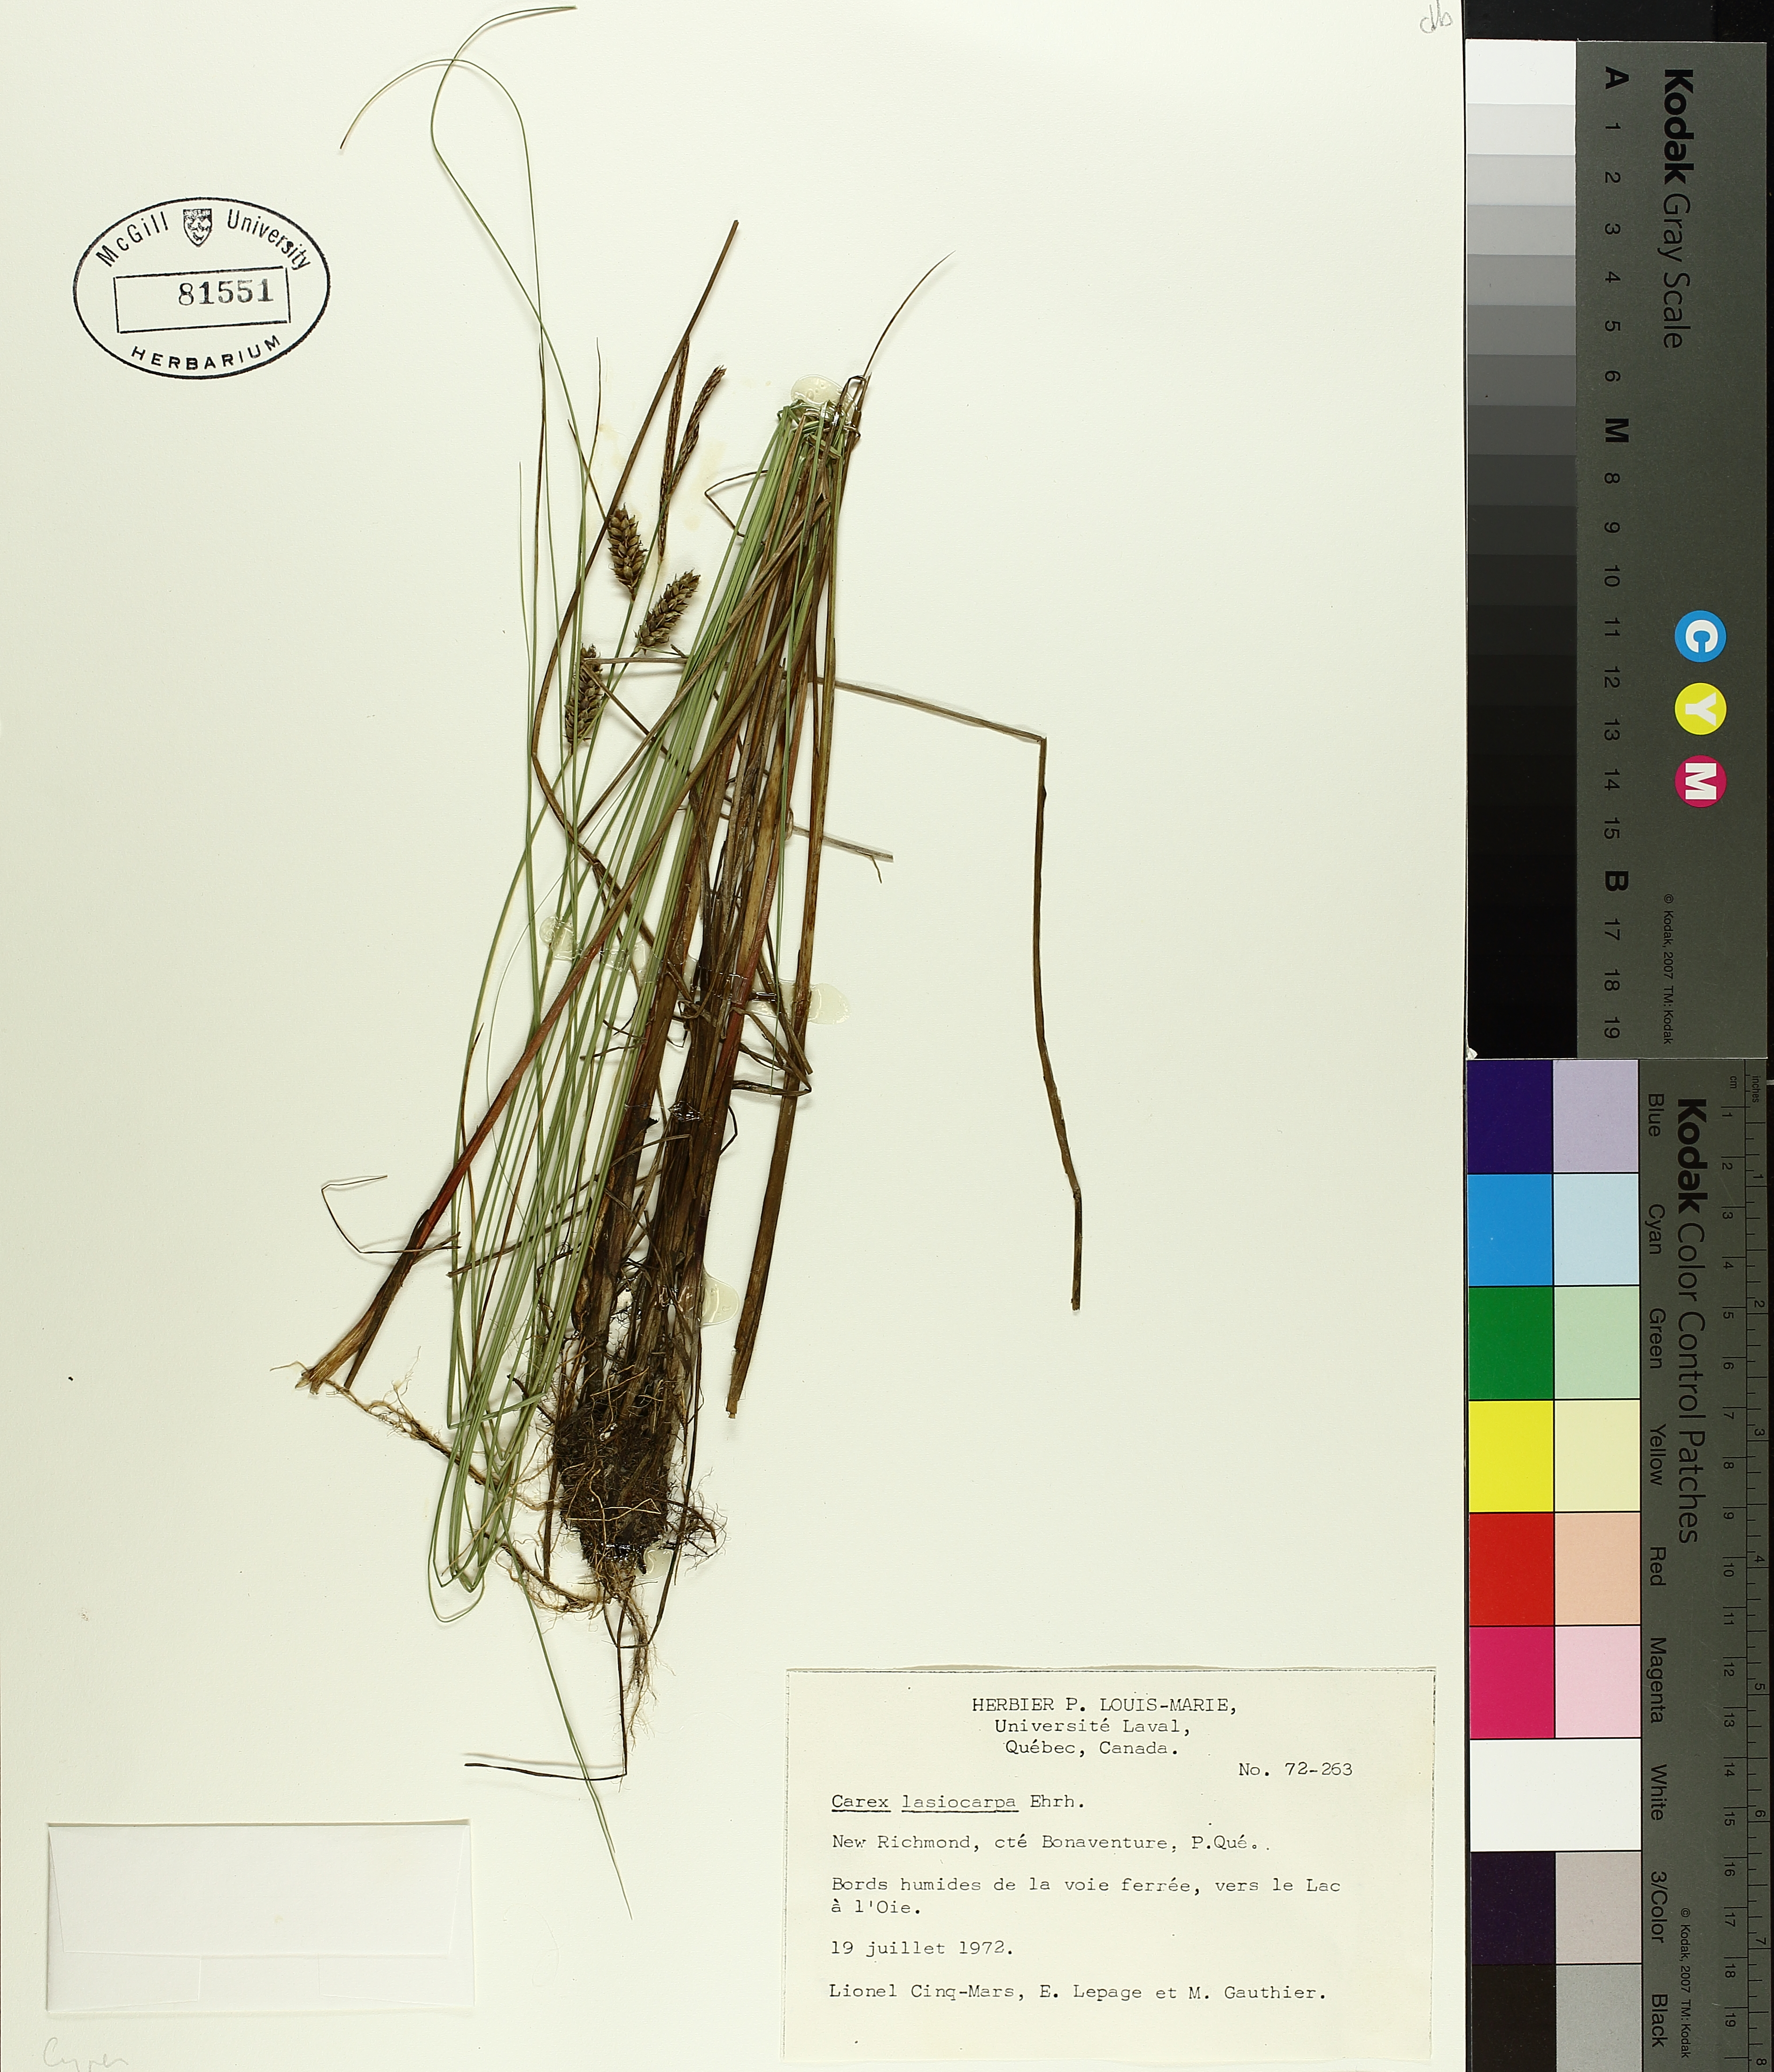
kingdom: Plantae
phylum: Tracheophyta
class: Liliopsida
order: Poales
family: Cyperaceae
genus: Carex
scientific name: Carex lasiocarpa
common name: Slender sedge
